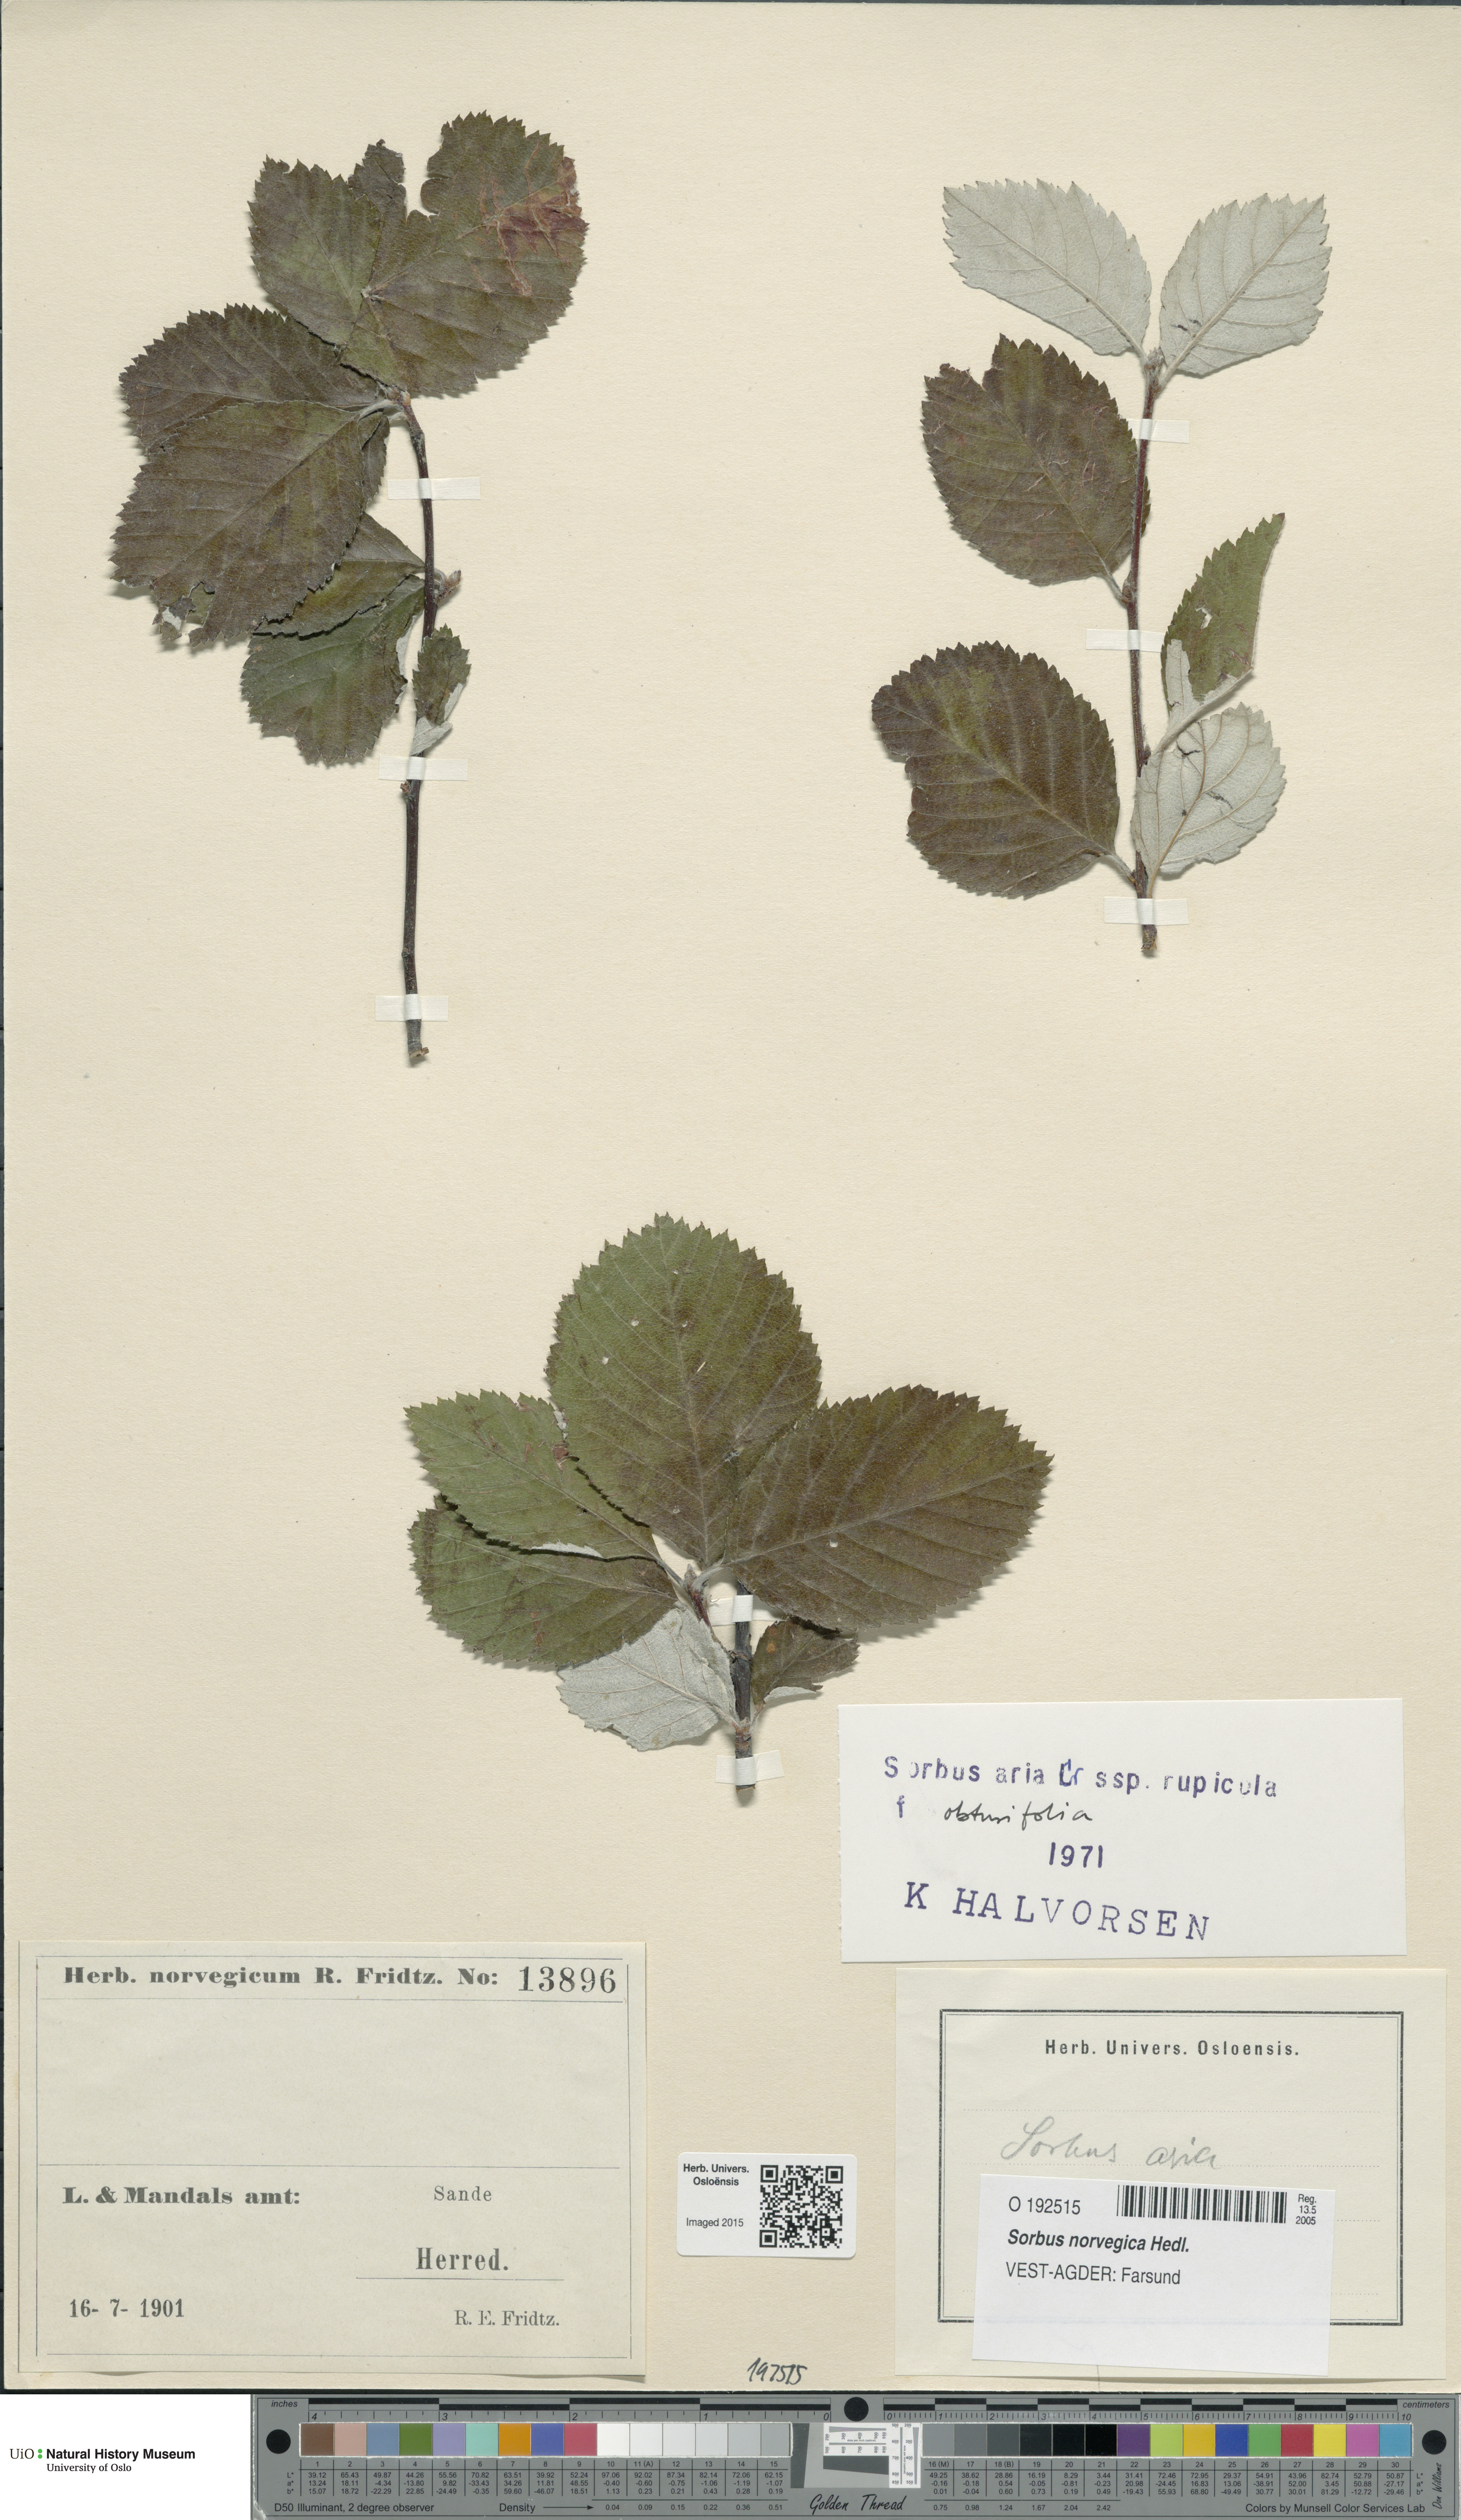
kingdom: Plantae
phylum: Tracheophyta
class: Magnoliopsida
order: Rosales
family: Rosaceae
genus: Aria
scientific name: Aria obtusifolia
